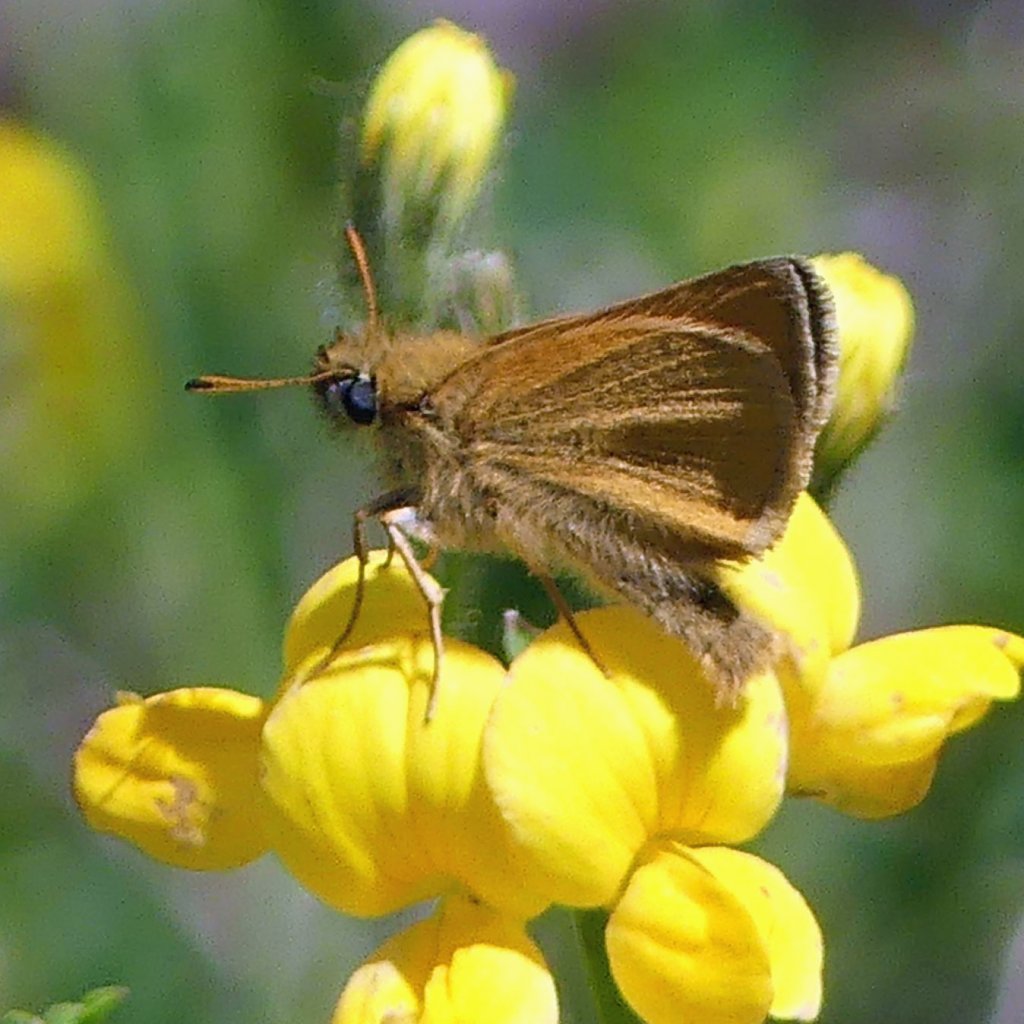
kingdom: Animalia
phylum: Arthropoda
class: Insecta
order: Lepidoptera
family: Hesperiidae
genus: Thymelicus
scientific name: Thymelicus lineola
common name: European Skipper
